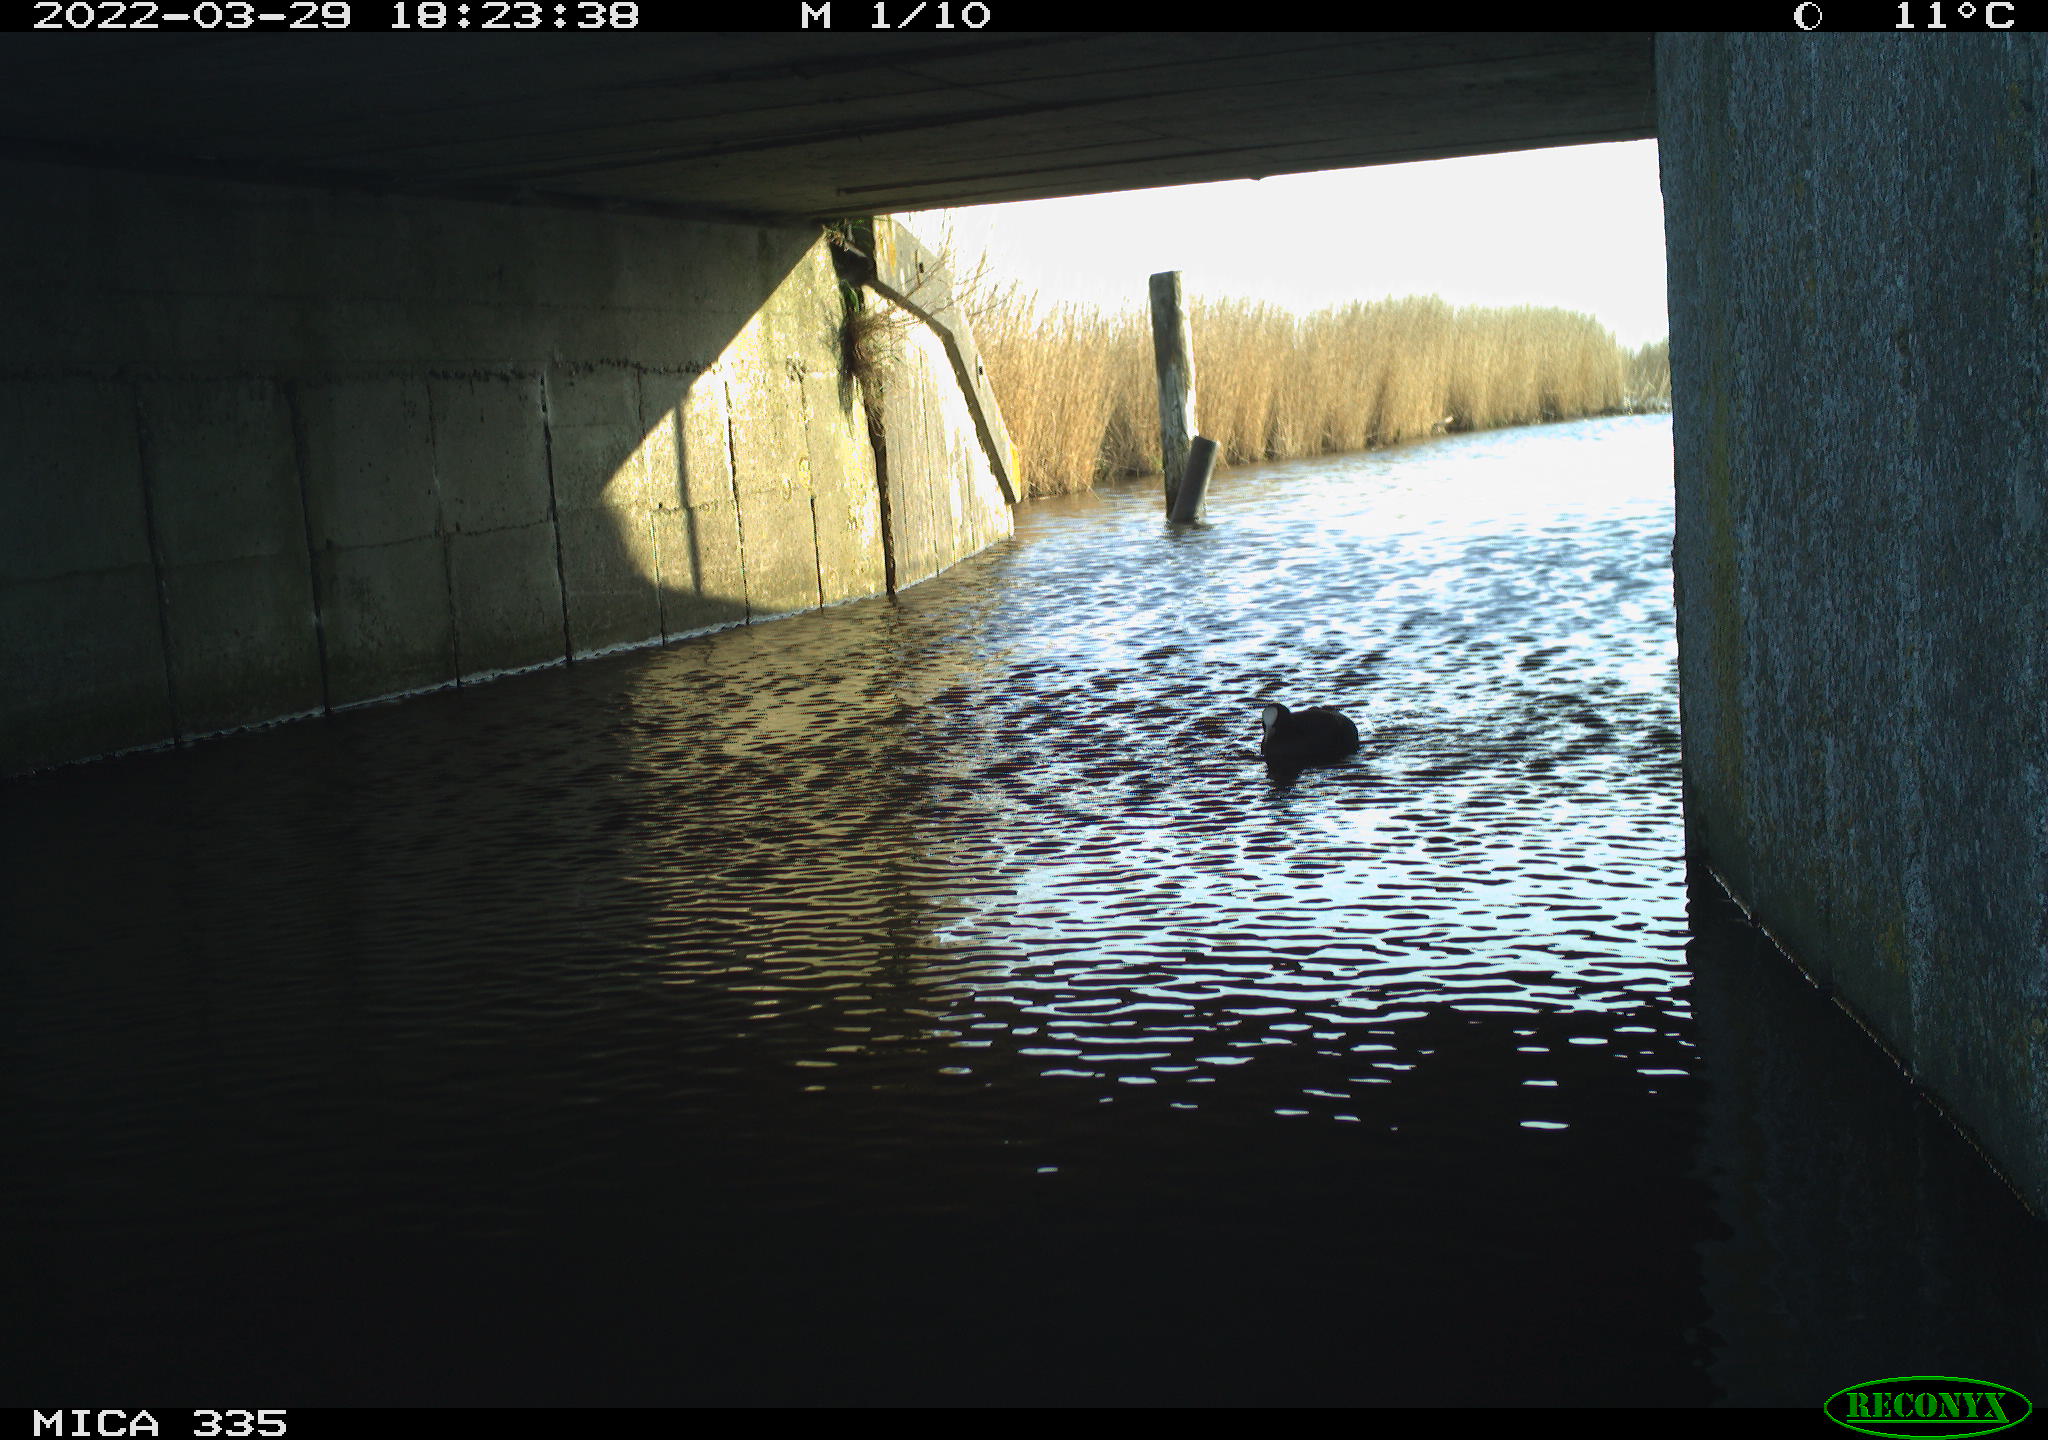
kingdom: Animalia
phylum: Chordata
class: Aves
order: Gruiformes
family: Rallidae
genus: Fulica
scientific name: Fulica atra
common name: Eurasian coot
